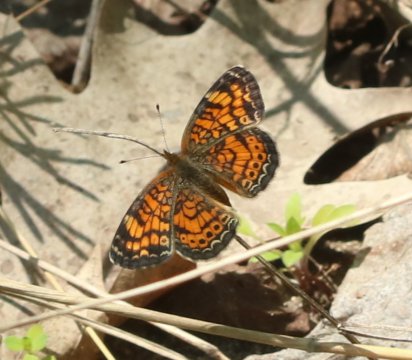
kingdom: Animalia
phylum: Arthropoda
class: Insecta
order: Lepidoptera
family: Nymphalidae
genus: Phyciodes
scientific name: Phyciodes tharos
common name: Pearl Crescent
